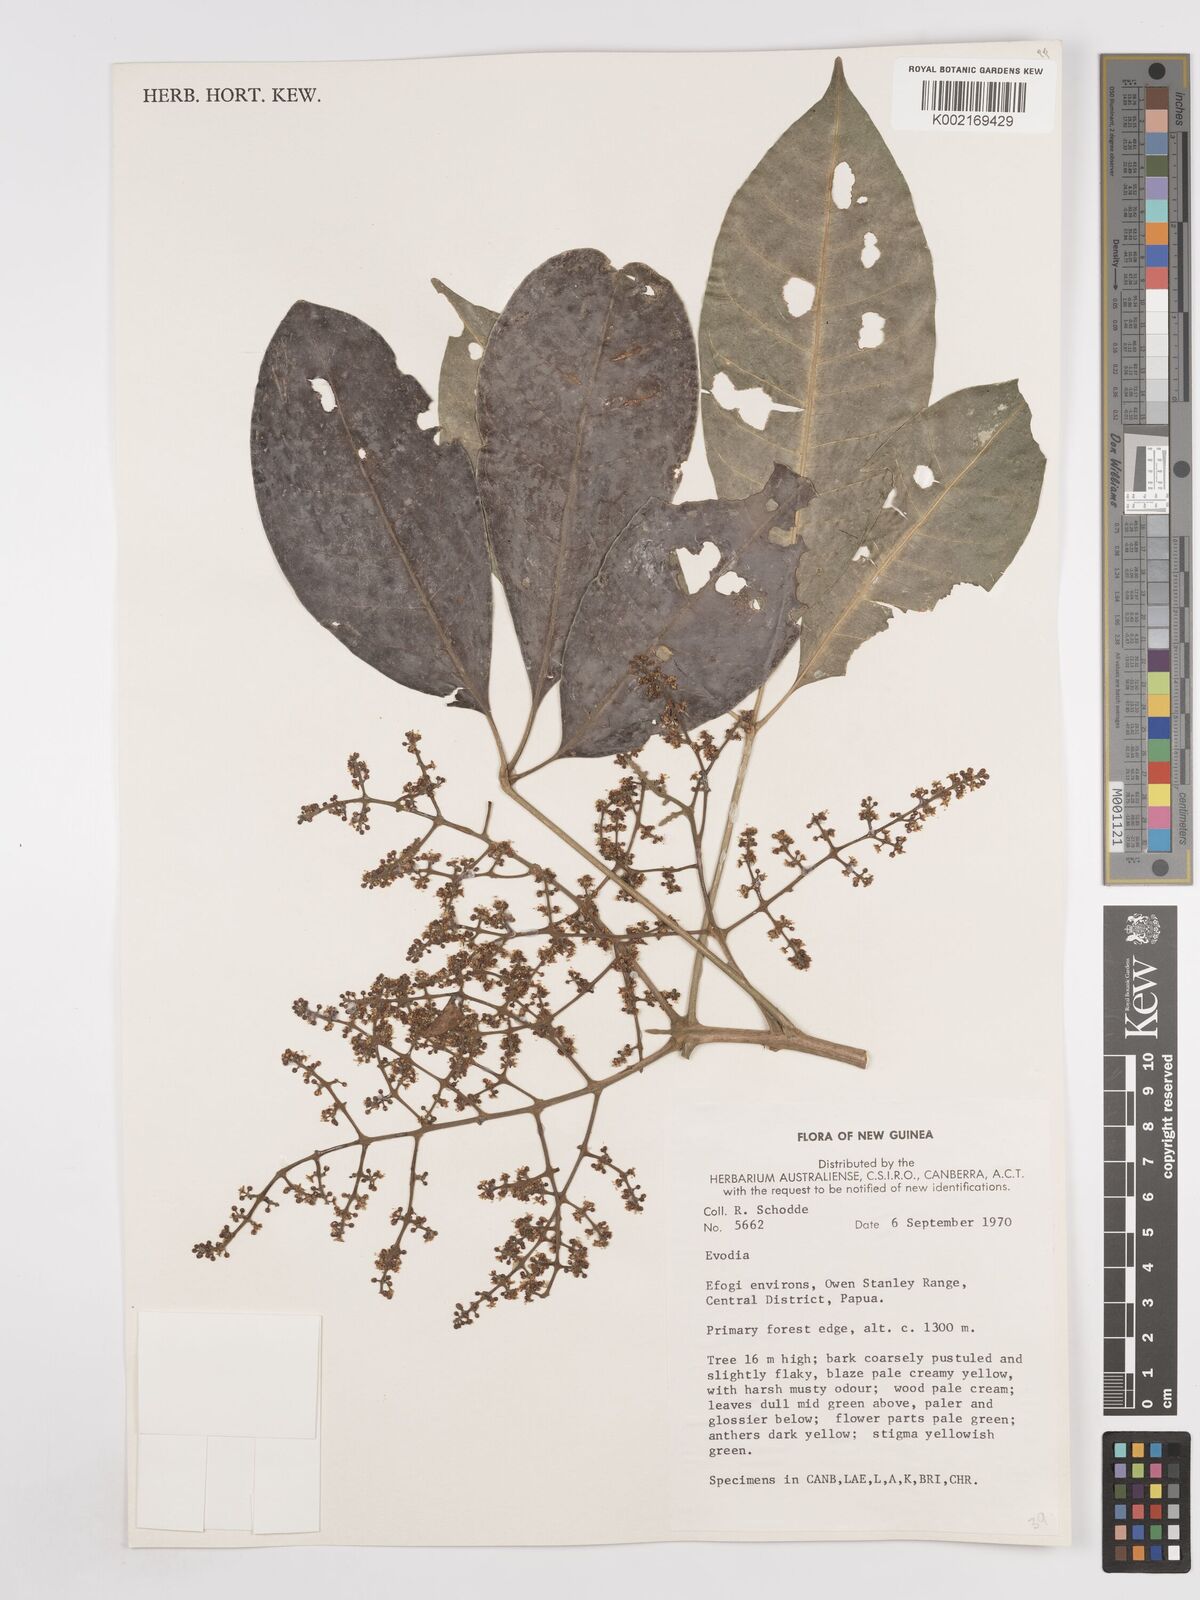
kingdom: Plantae
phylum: Tracheophyta
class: Magnoliopsida
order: Sapindales
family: Rutaceae
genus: Euodia
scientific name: Euodia
